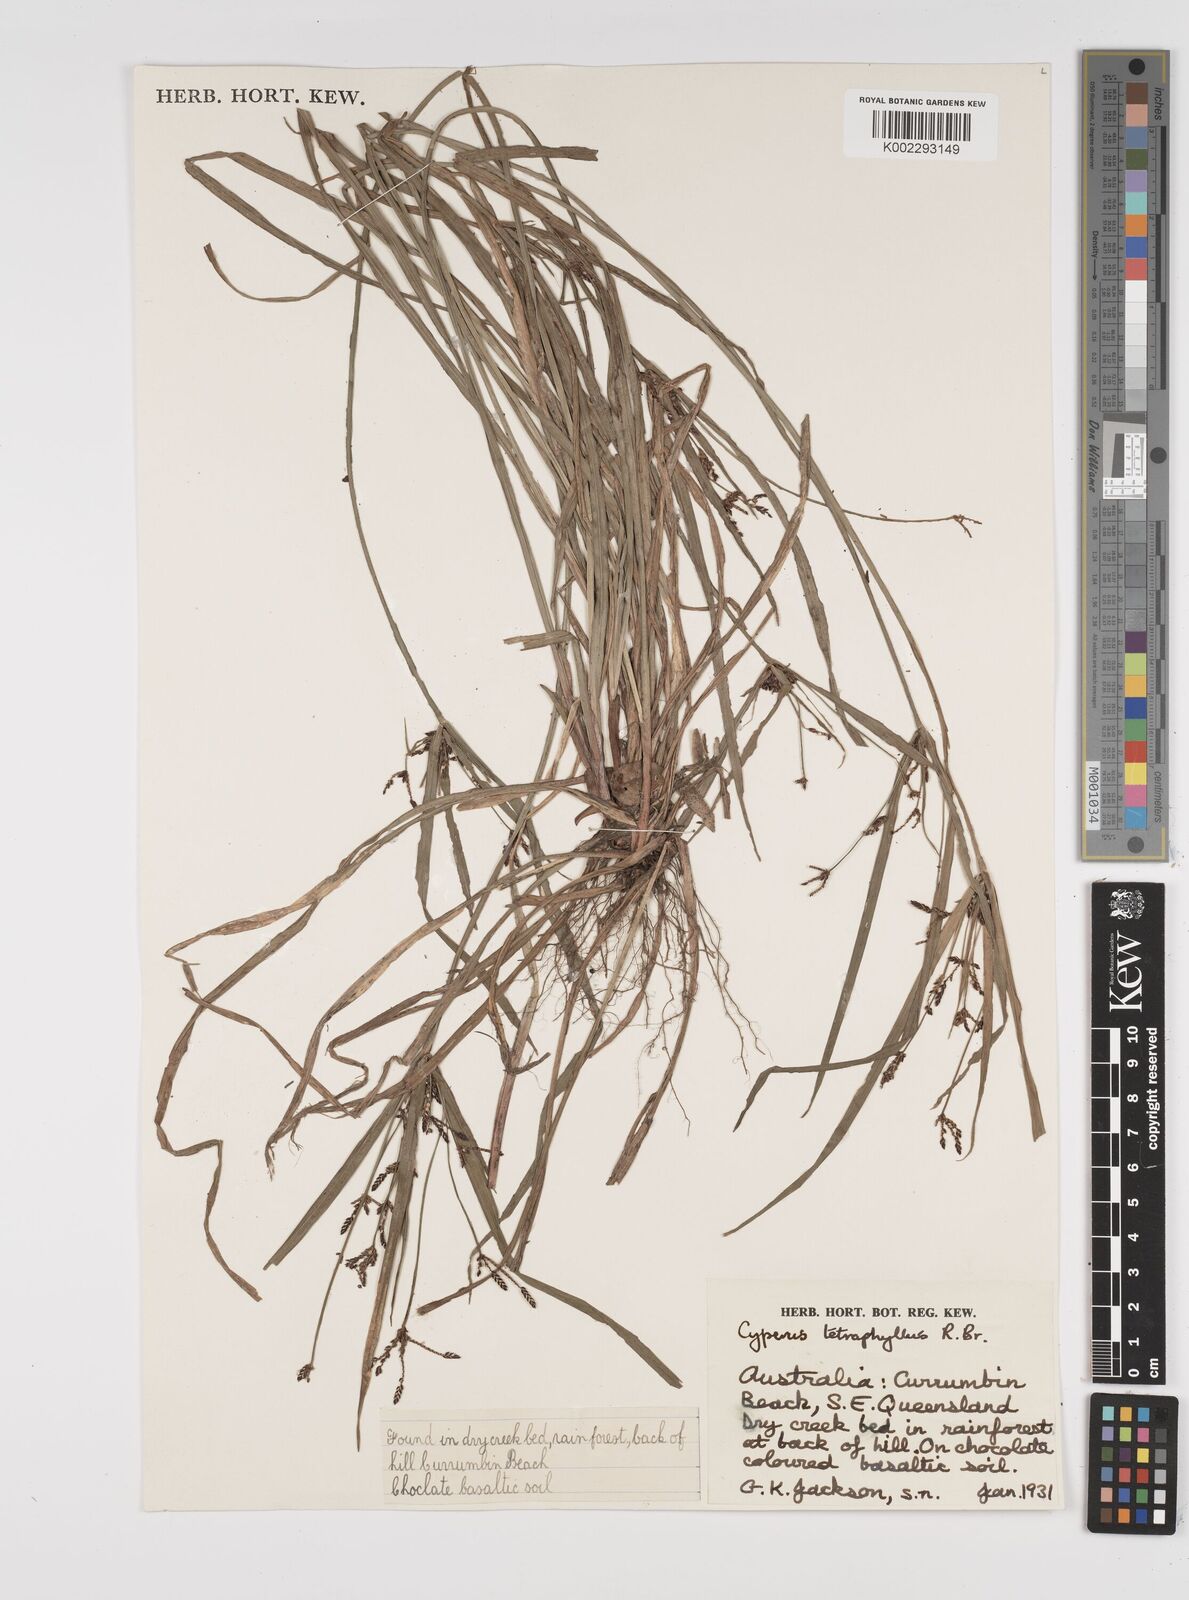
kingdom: Plantae
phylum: Tracheophyta
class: Liliopsida
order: Poales
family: Cyperaceae
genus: Cyperus
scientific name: Cyperus tetraphyllus
